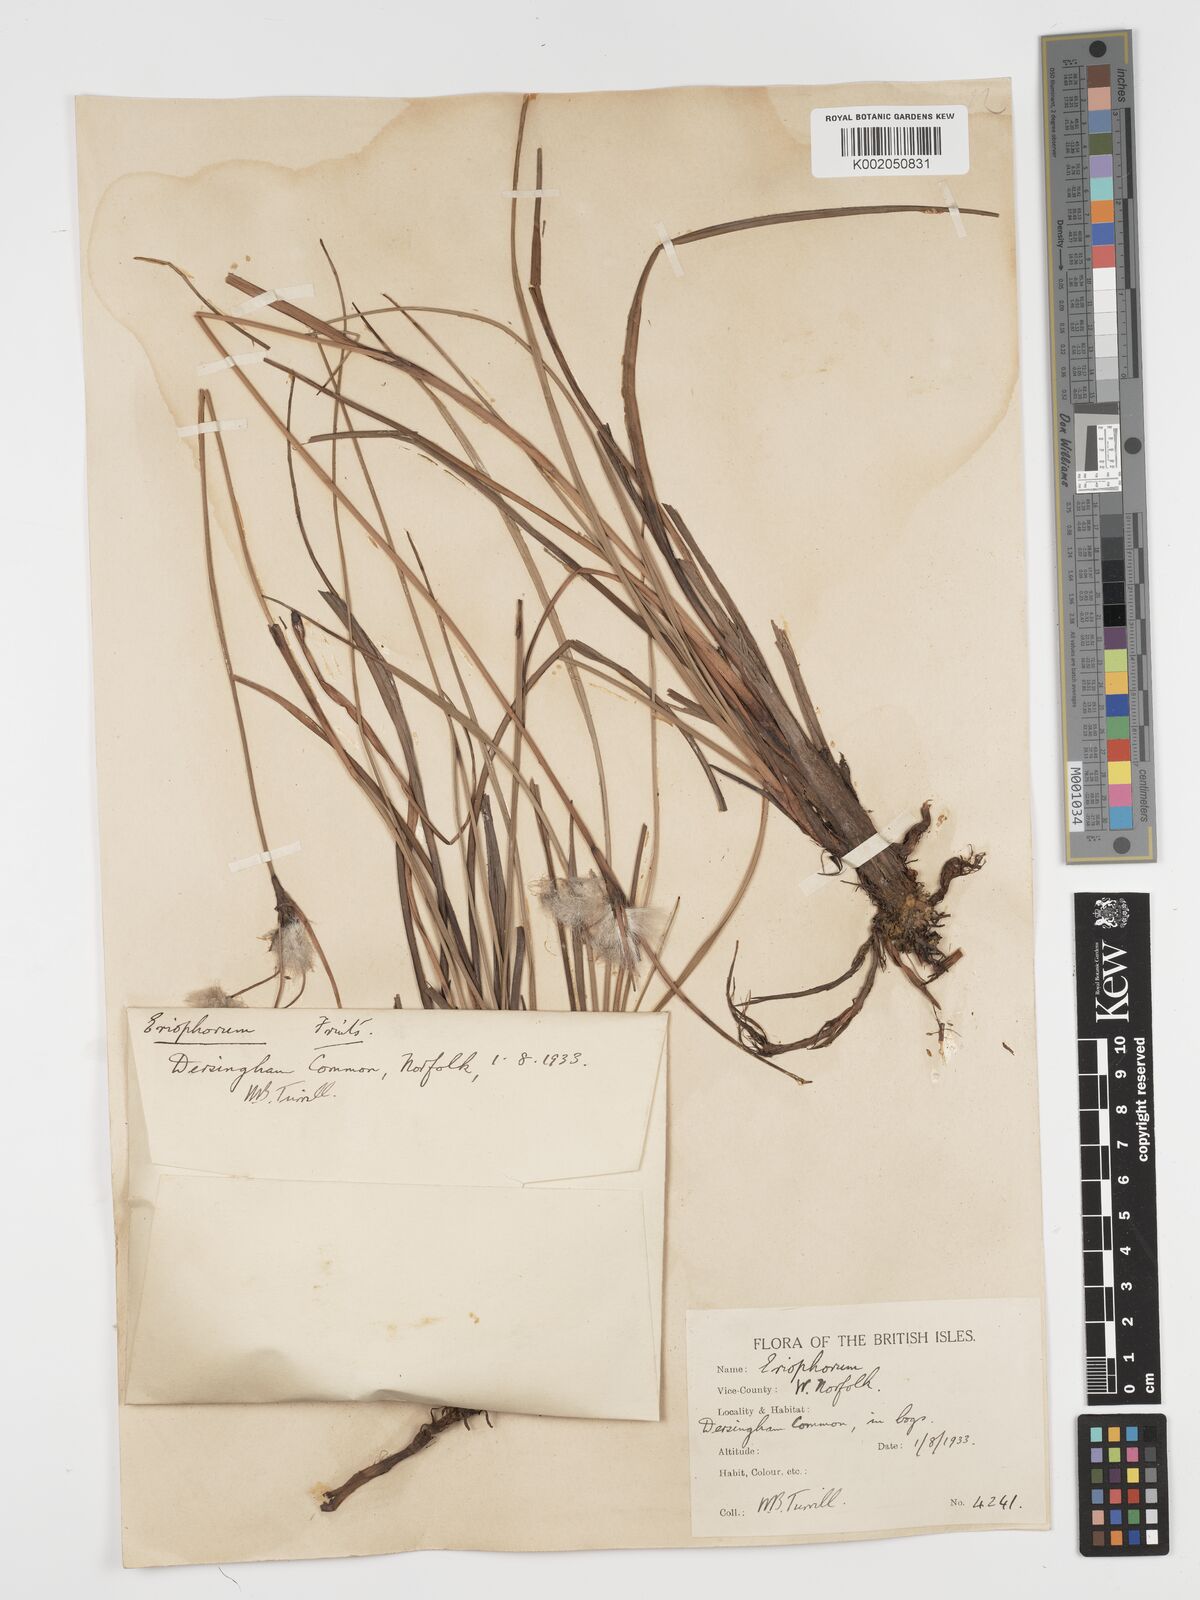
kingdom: Plantae
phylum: Tracheophyta
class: Liliopsida
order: Poales
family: Cyperaceae
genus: Eriophorum
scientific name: Eriophorum angustifolium
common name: Common cottongrass
